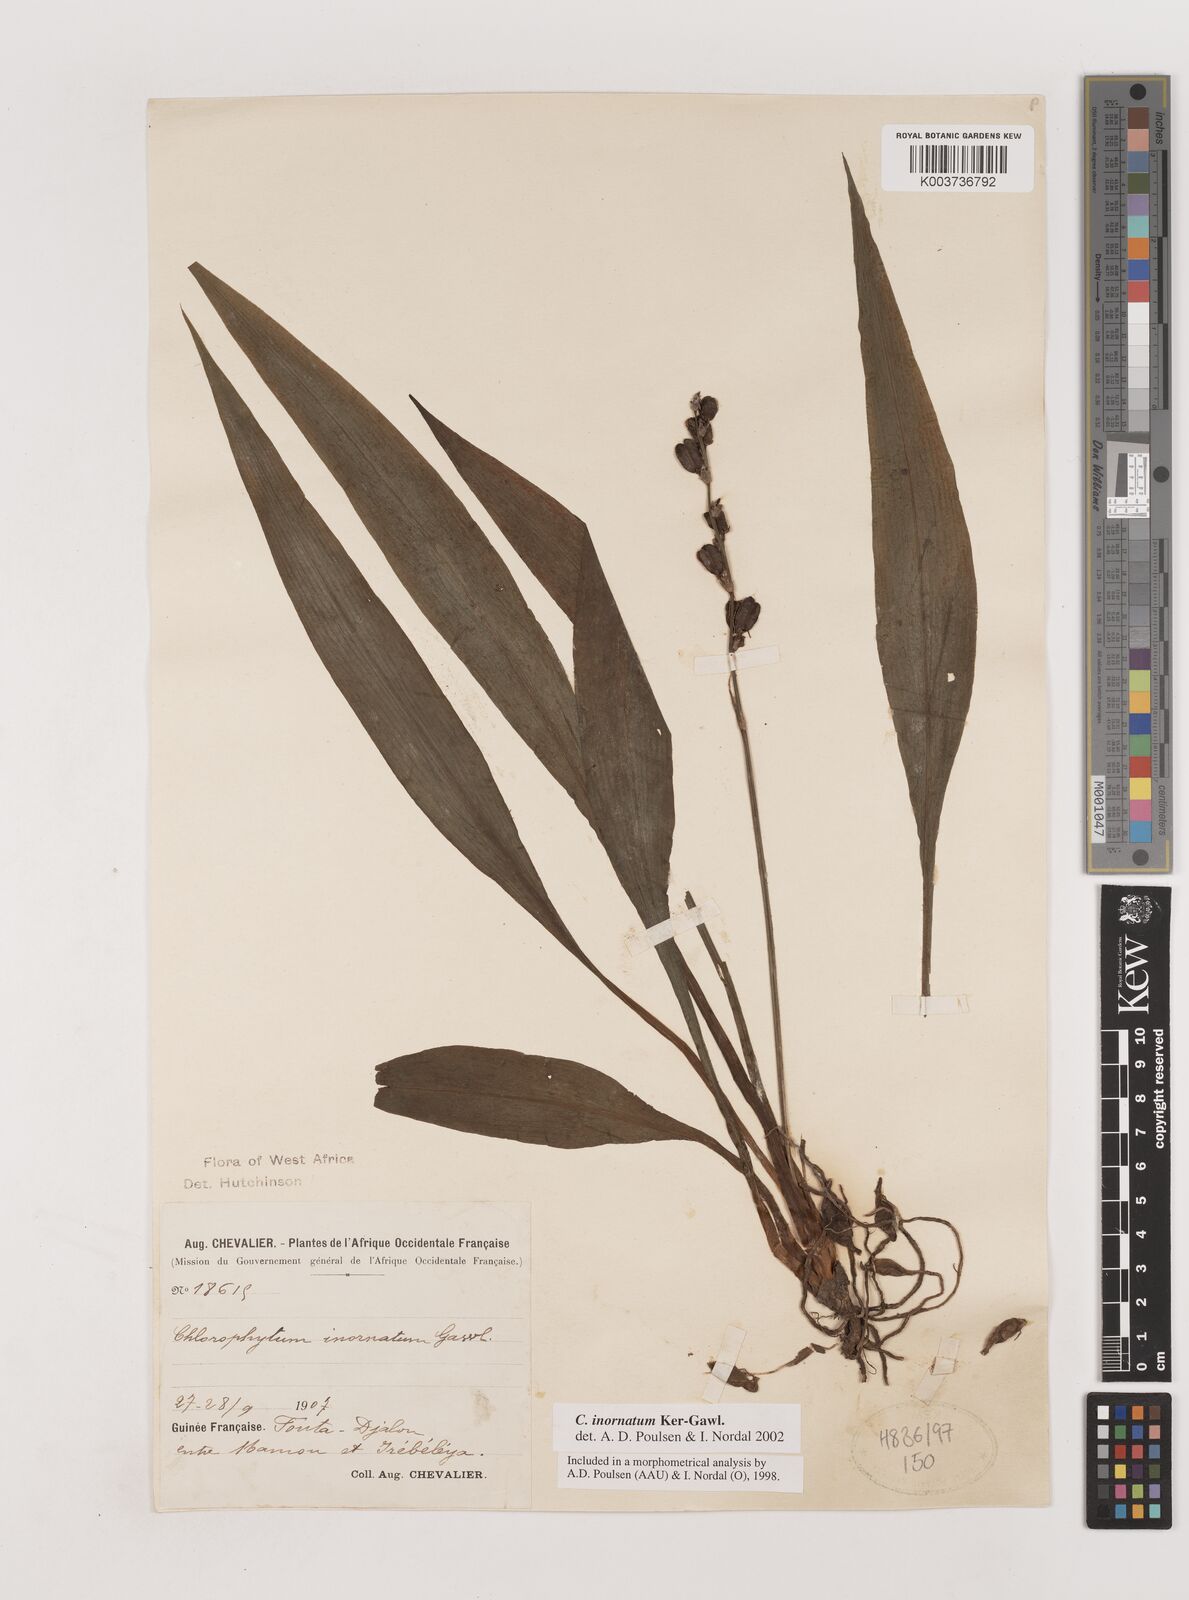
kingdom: Plantae
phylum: Tracheophyta
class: Liliopsida
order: Asparagales
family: Asparagaceae
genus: Chlorophytum
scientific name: Chlorophytum inornatum
